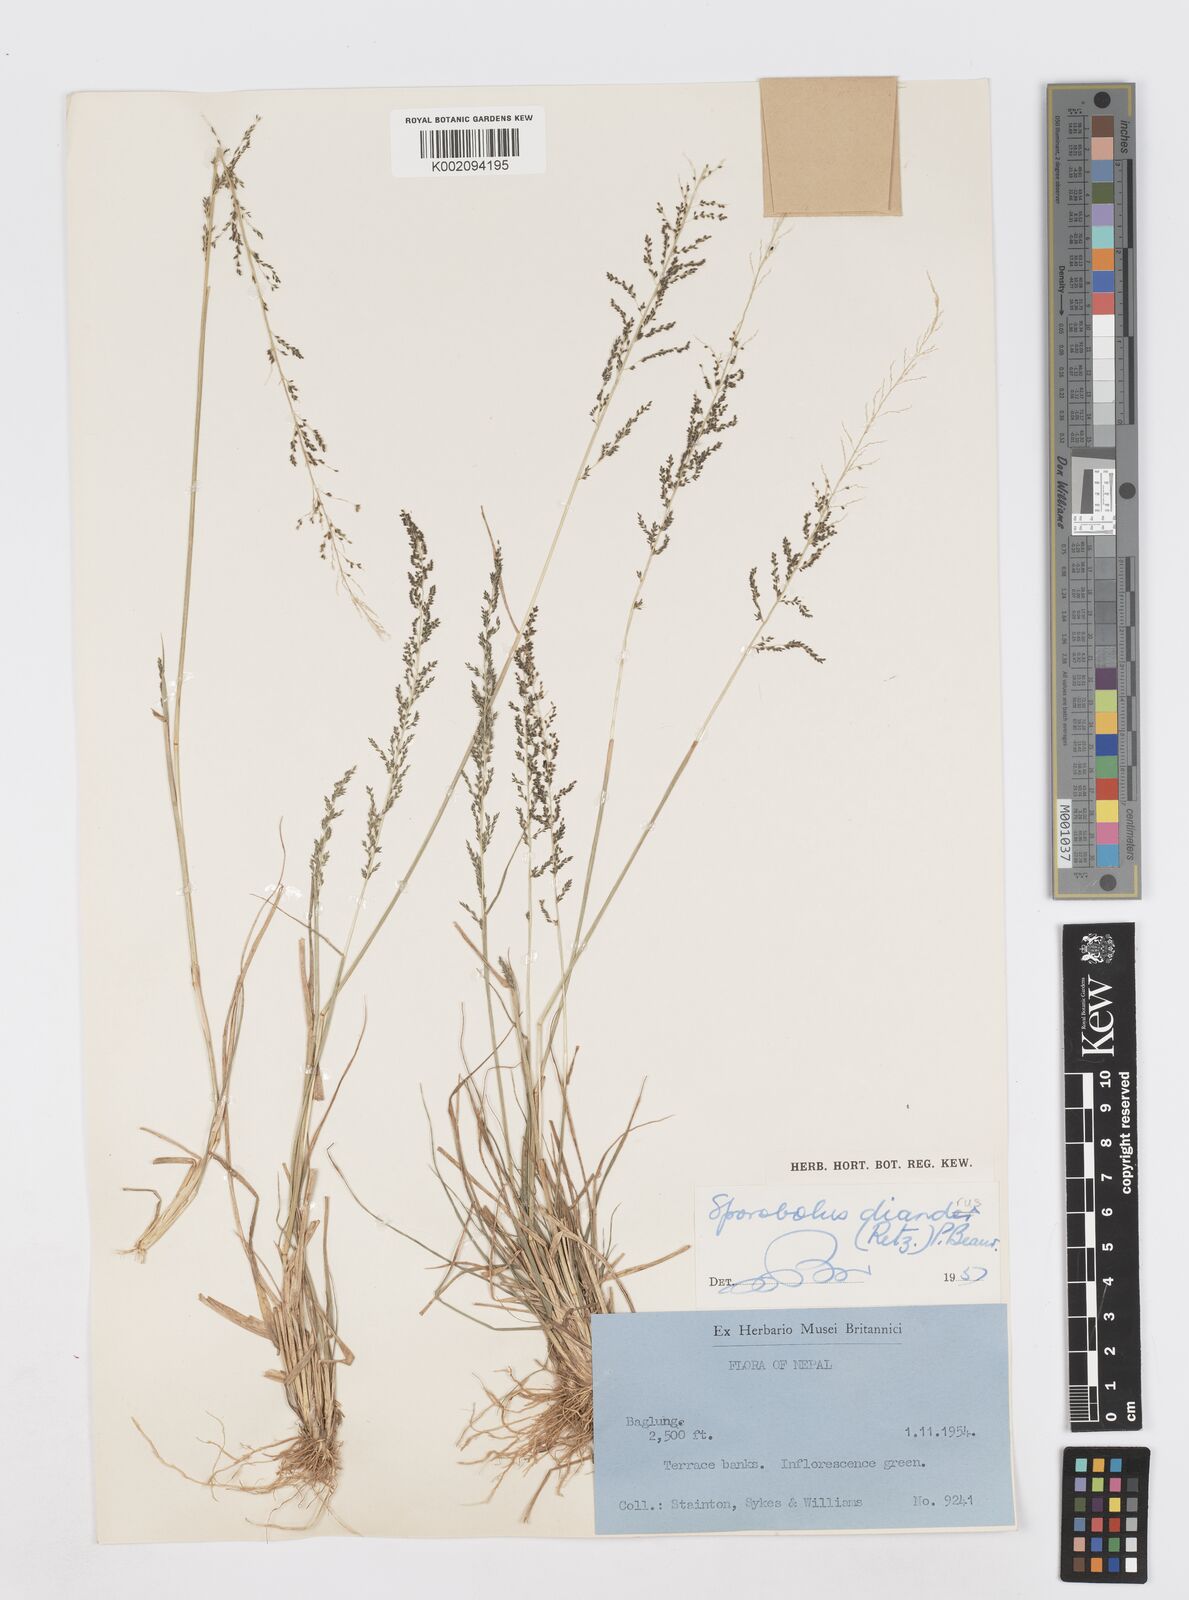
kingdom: Plantae
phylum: Tracheophyta
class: Liliopsida
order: Poales
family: Poaceae
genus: Sporobolus
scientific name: Sporobolus diandrus
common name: Tussock dropseed
